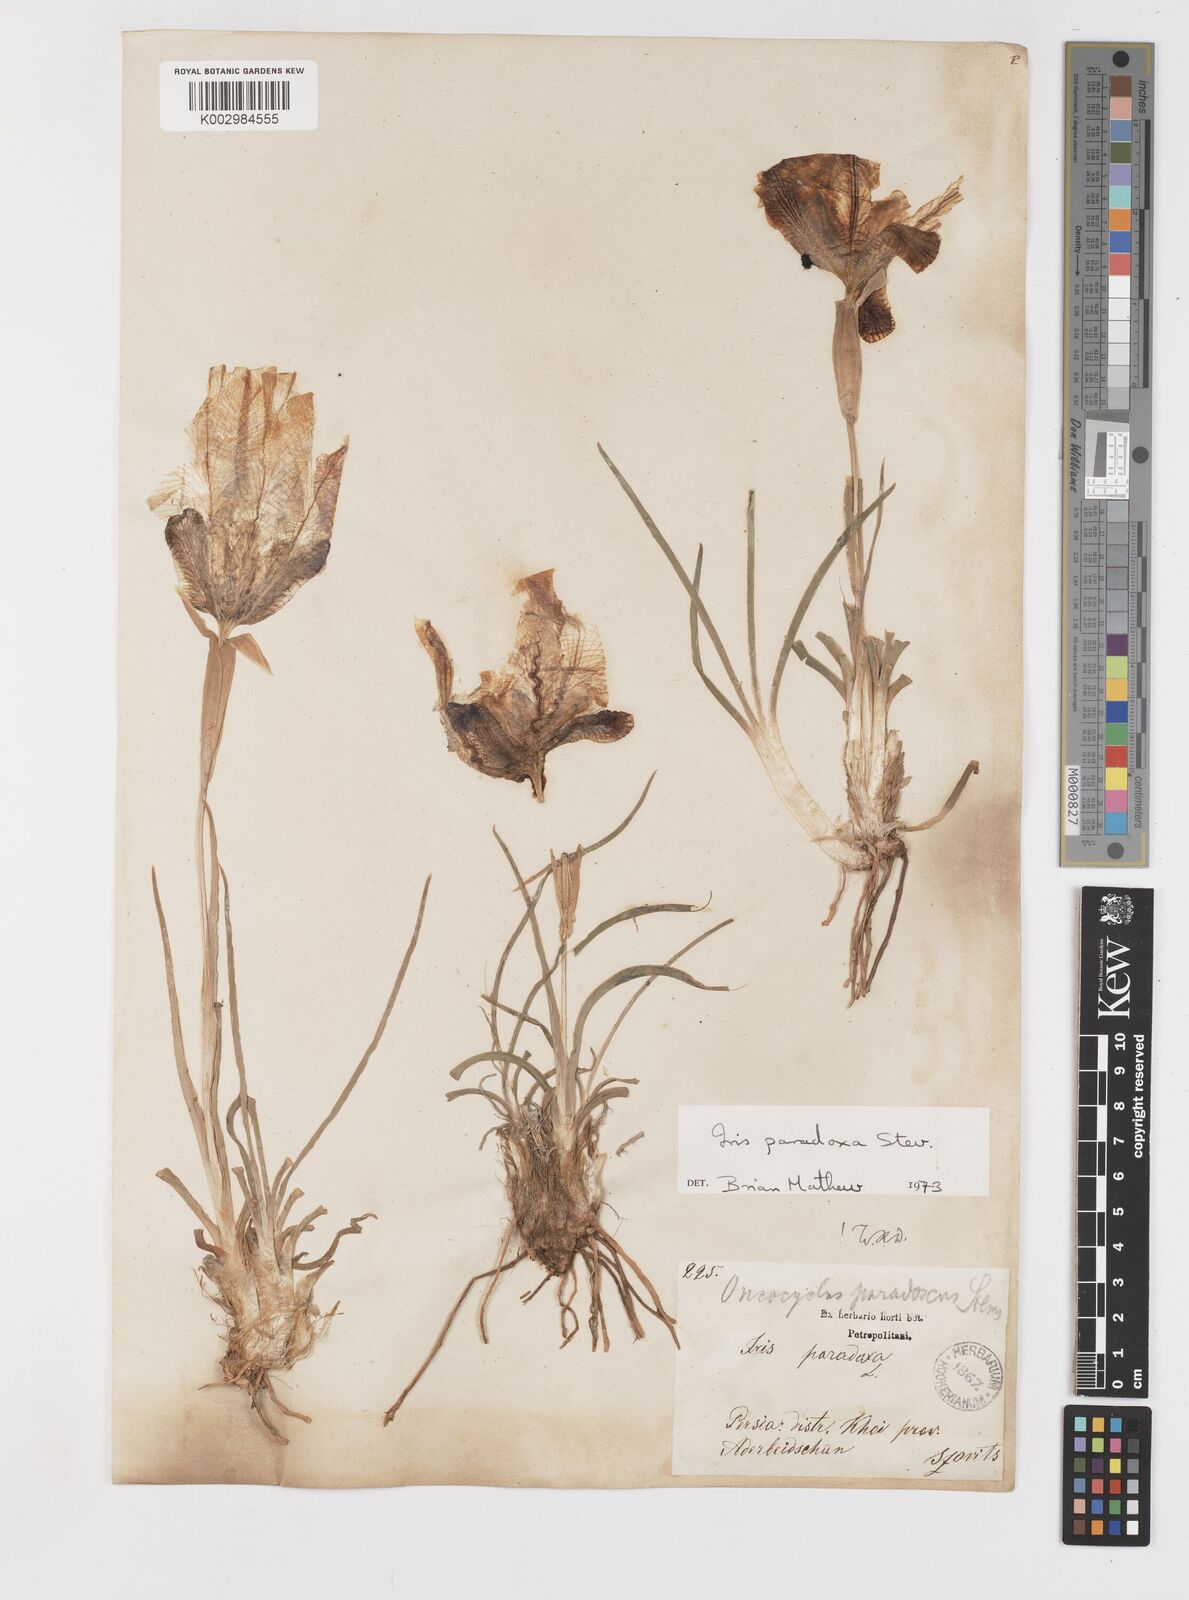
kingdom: Plantae
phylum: Tracheophyta
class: Liliopsida
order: Asparagales
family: Iridaceae
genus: Iris
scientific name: Iris paradoxa
